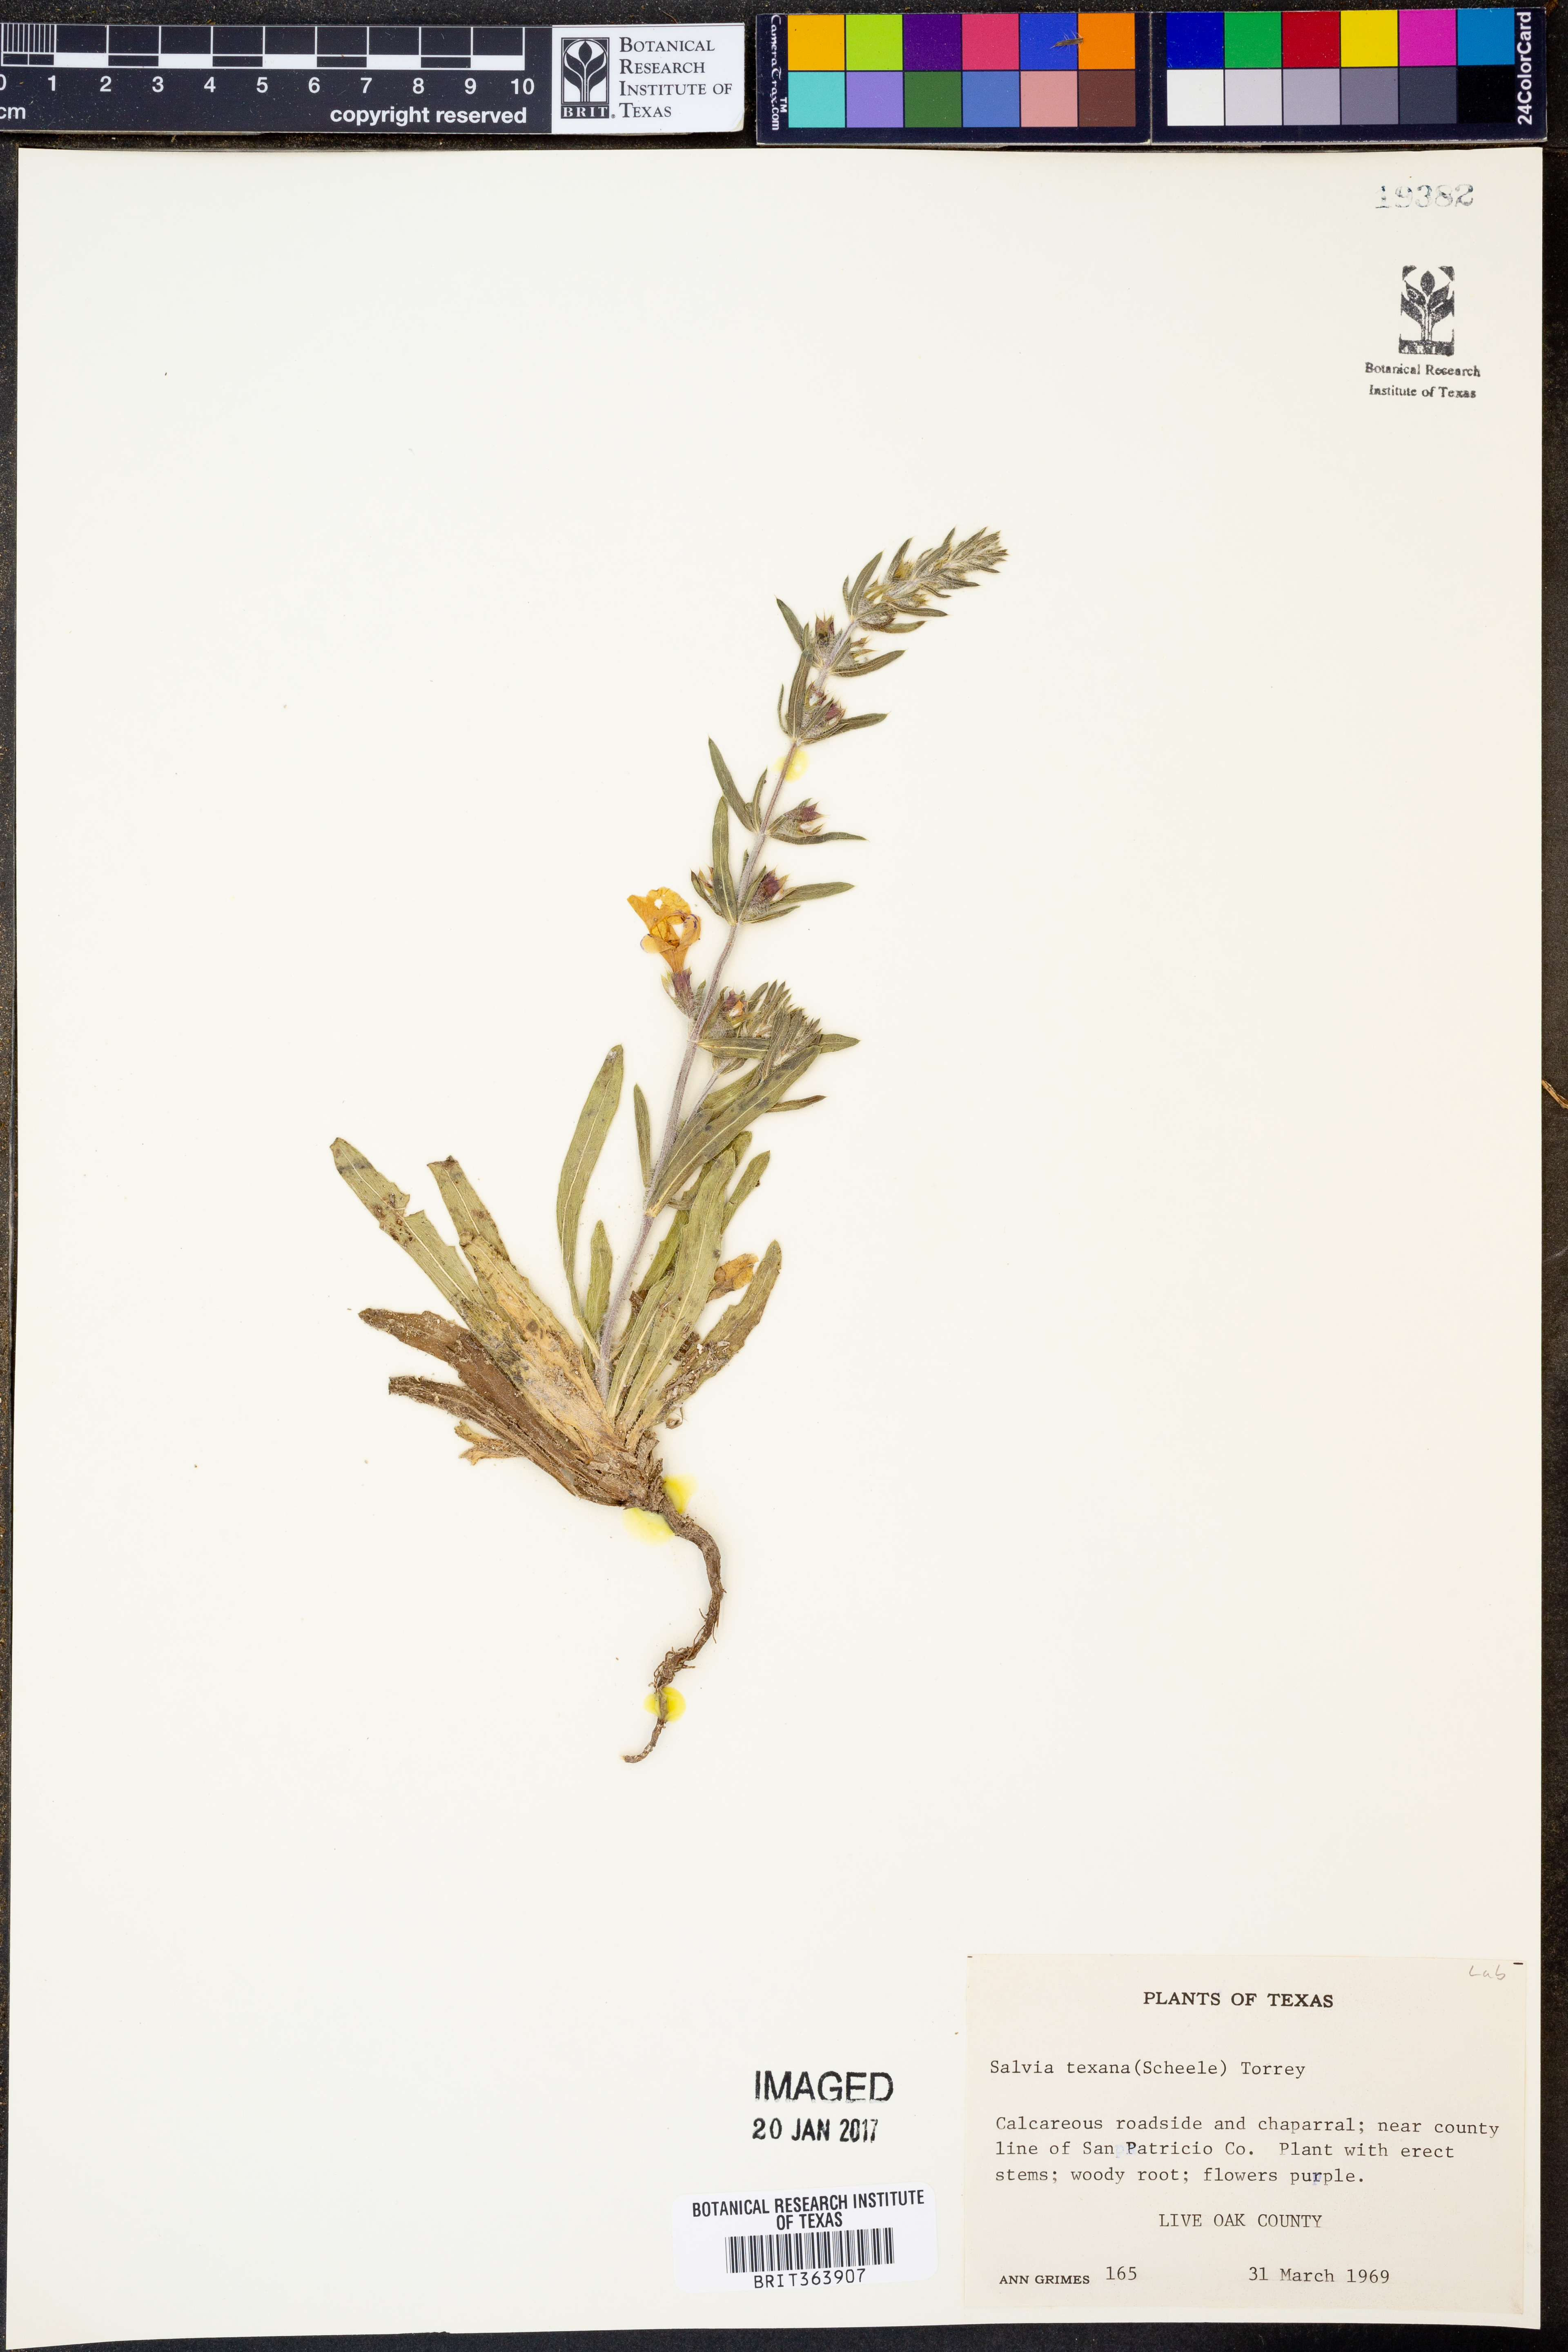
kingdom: Plantae
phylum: Tracheophyta
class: Magnoliopsida
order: Lamiales
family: Lamiaceae
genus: Salvia
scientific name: Salvia texana
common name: Texas sage
